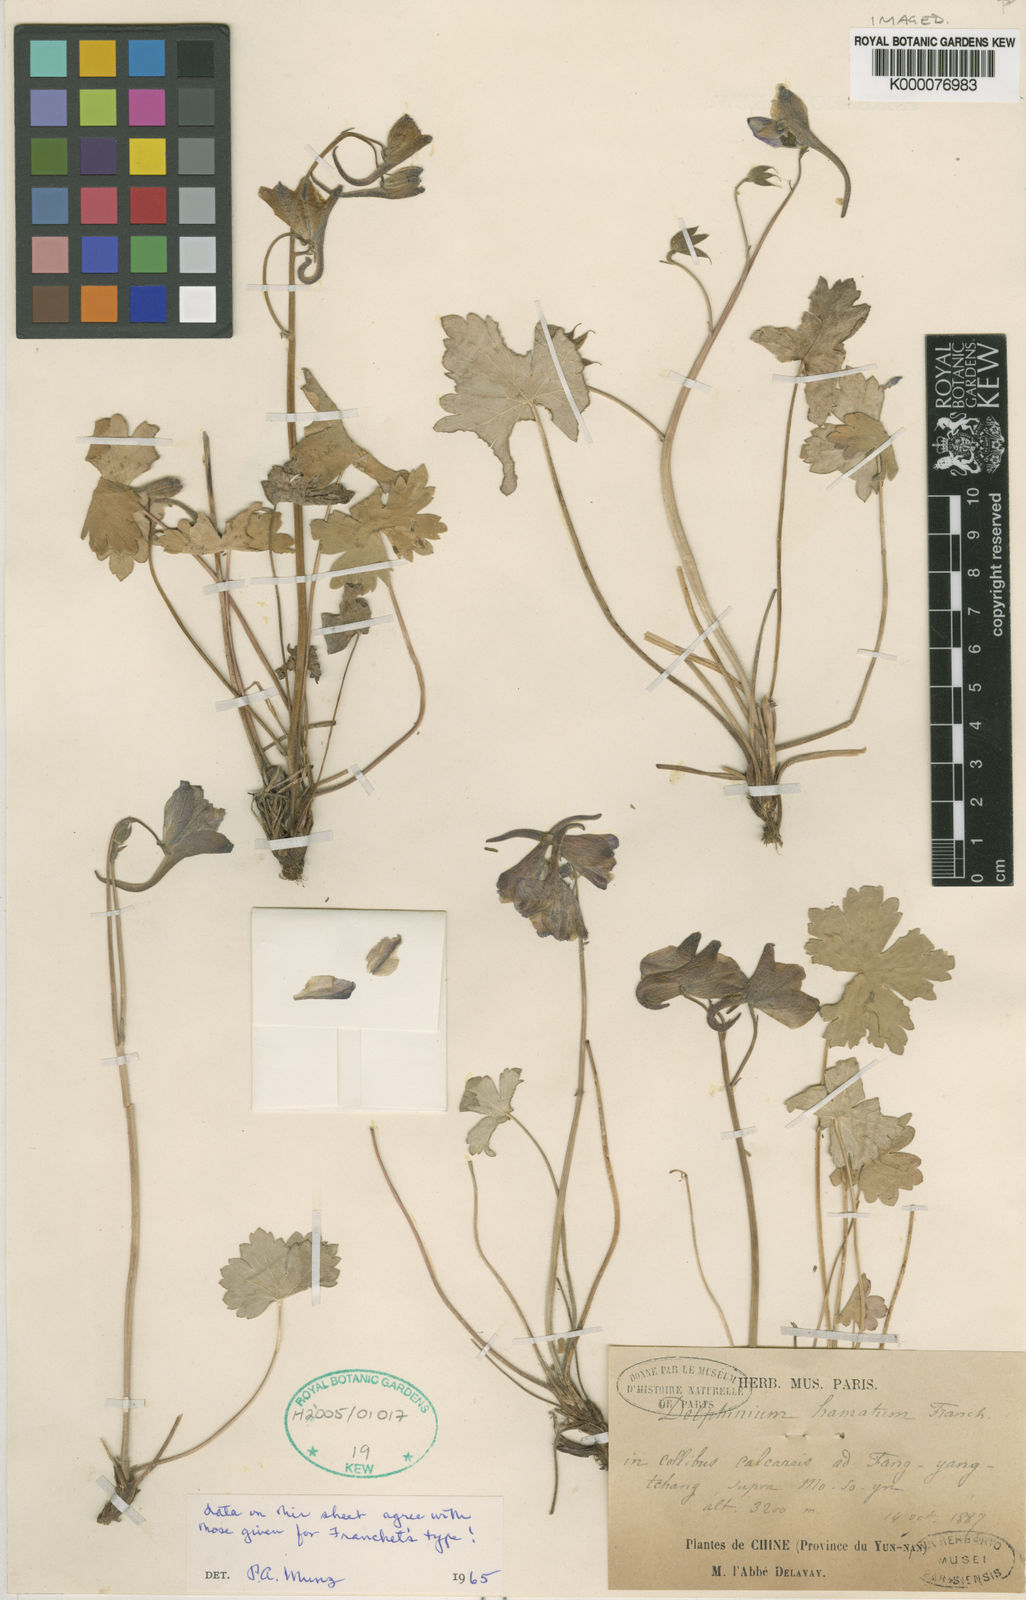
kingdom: Plantae
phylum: Tracheophyta
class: Magnoliopsida
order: Ranunculales
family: Ranunculaceae
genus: Delphinium
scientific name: Delphinium hamatum
